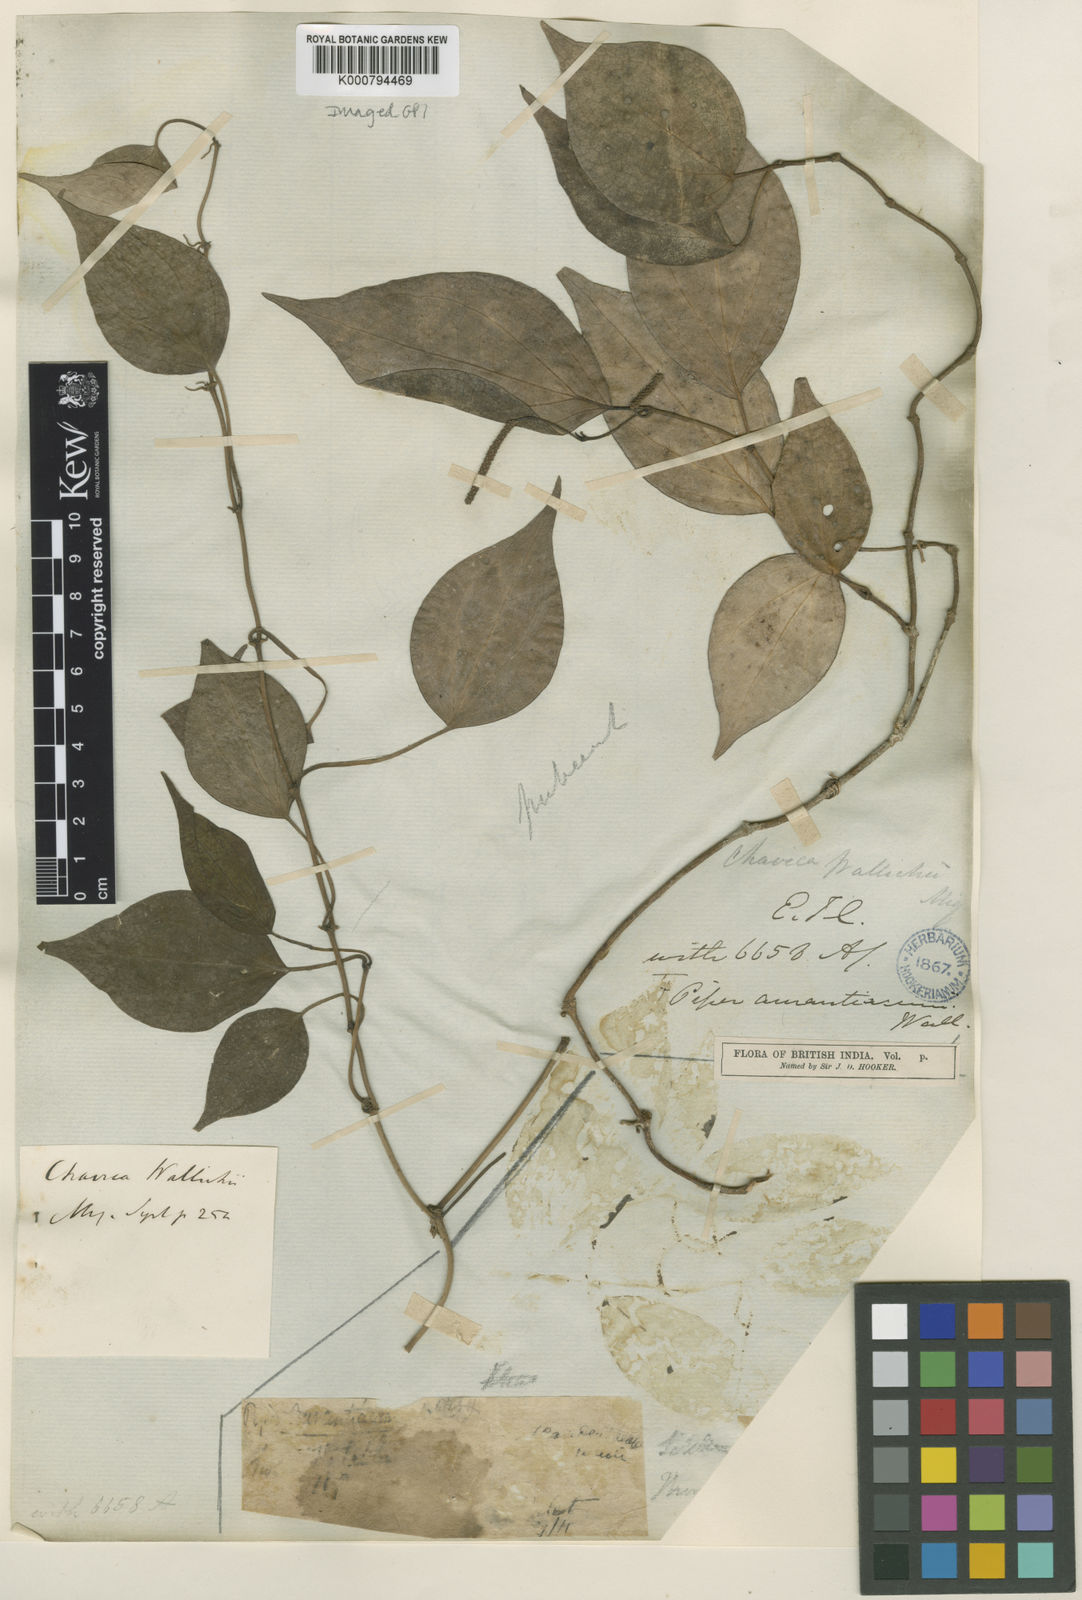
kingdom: Plantae
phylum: Tracheophyta
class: Magnoliopsida
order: Piperales
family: Piperaceae
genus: Piper
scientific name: Piper wallichii
